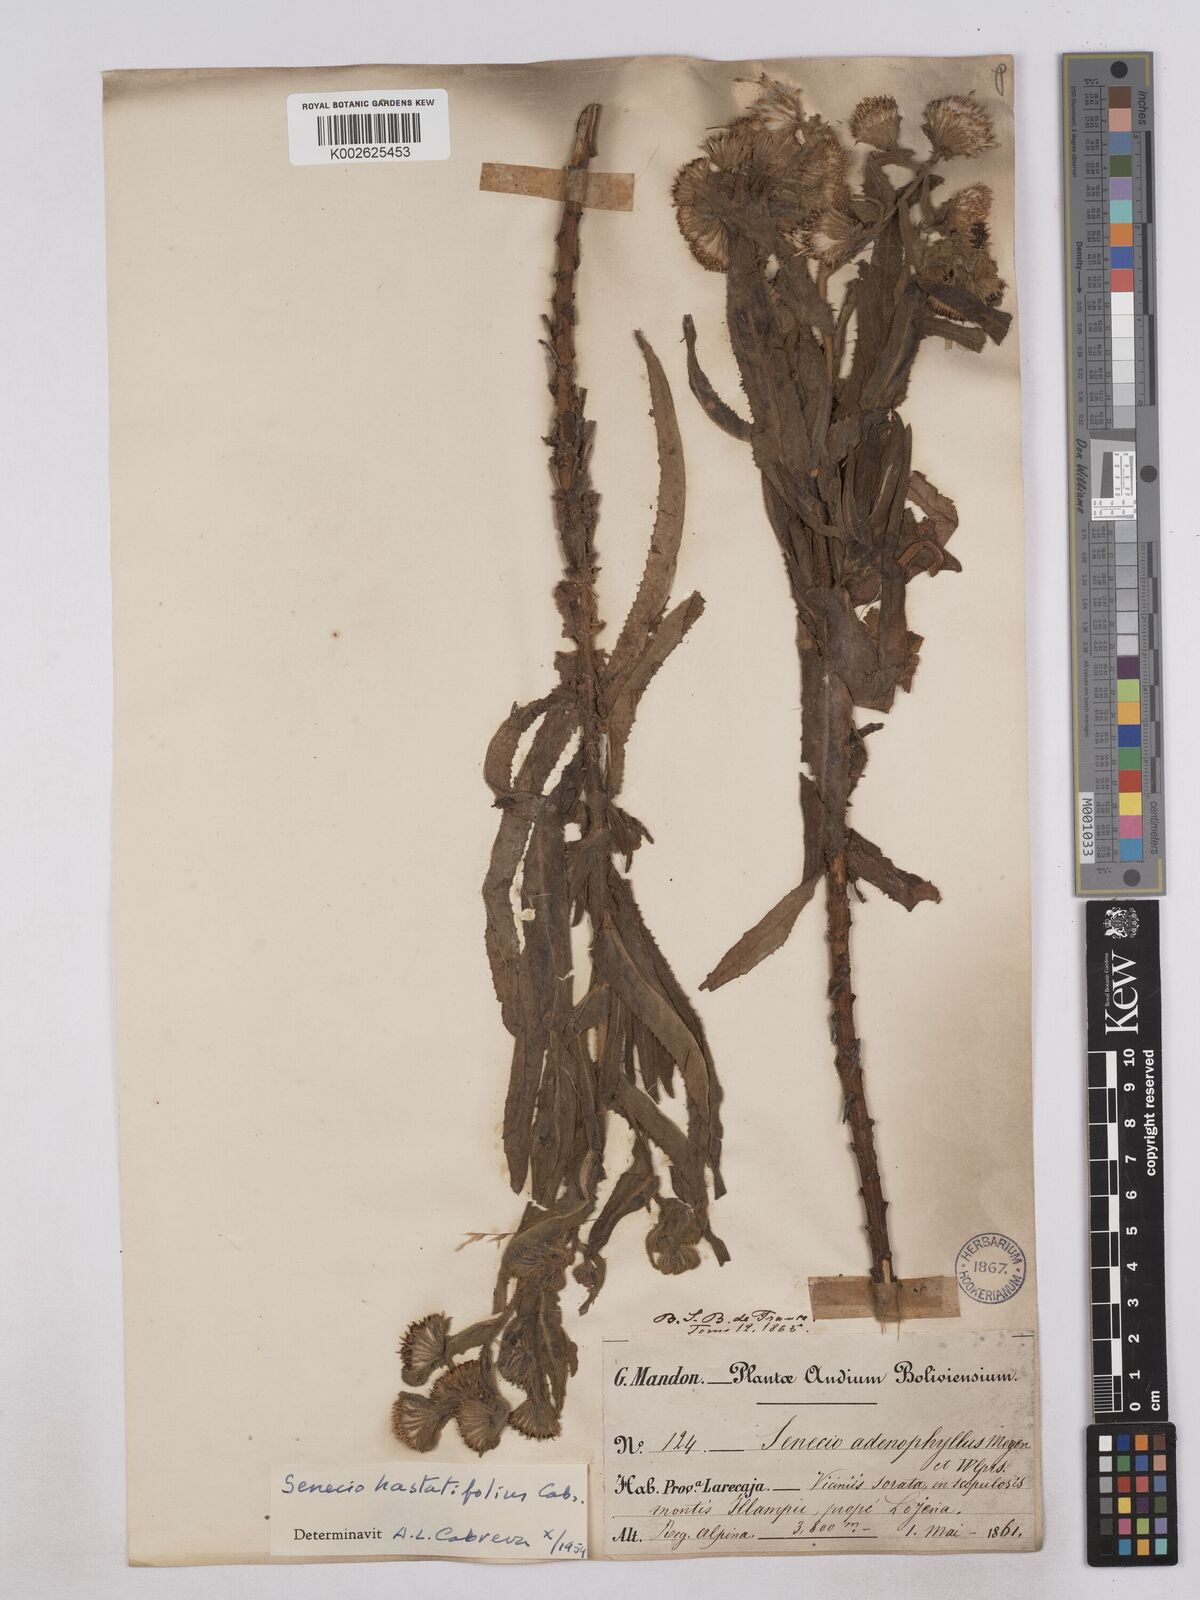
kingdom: Plantae
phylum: Tracheophyta
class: Magnoliopsida
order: Asterales
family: Asteraceae
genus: Senecio
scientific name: Senecio hastatifolius
